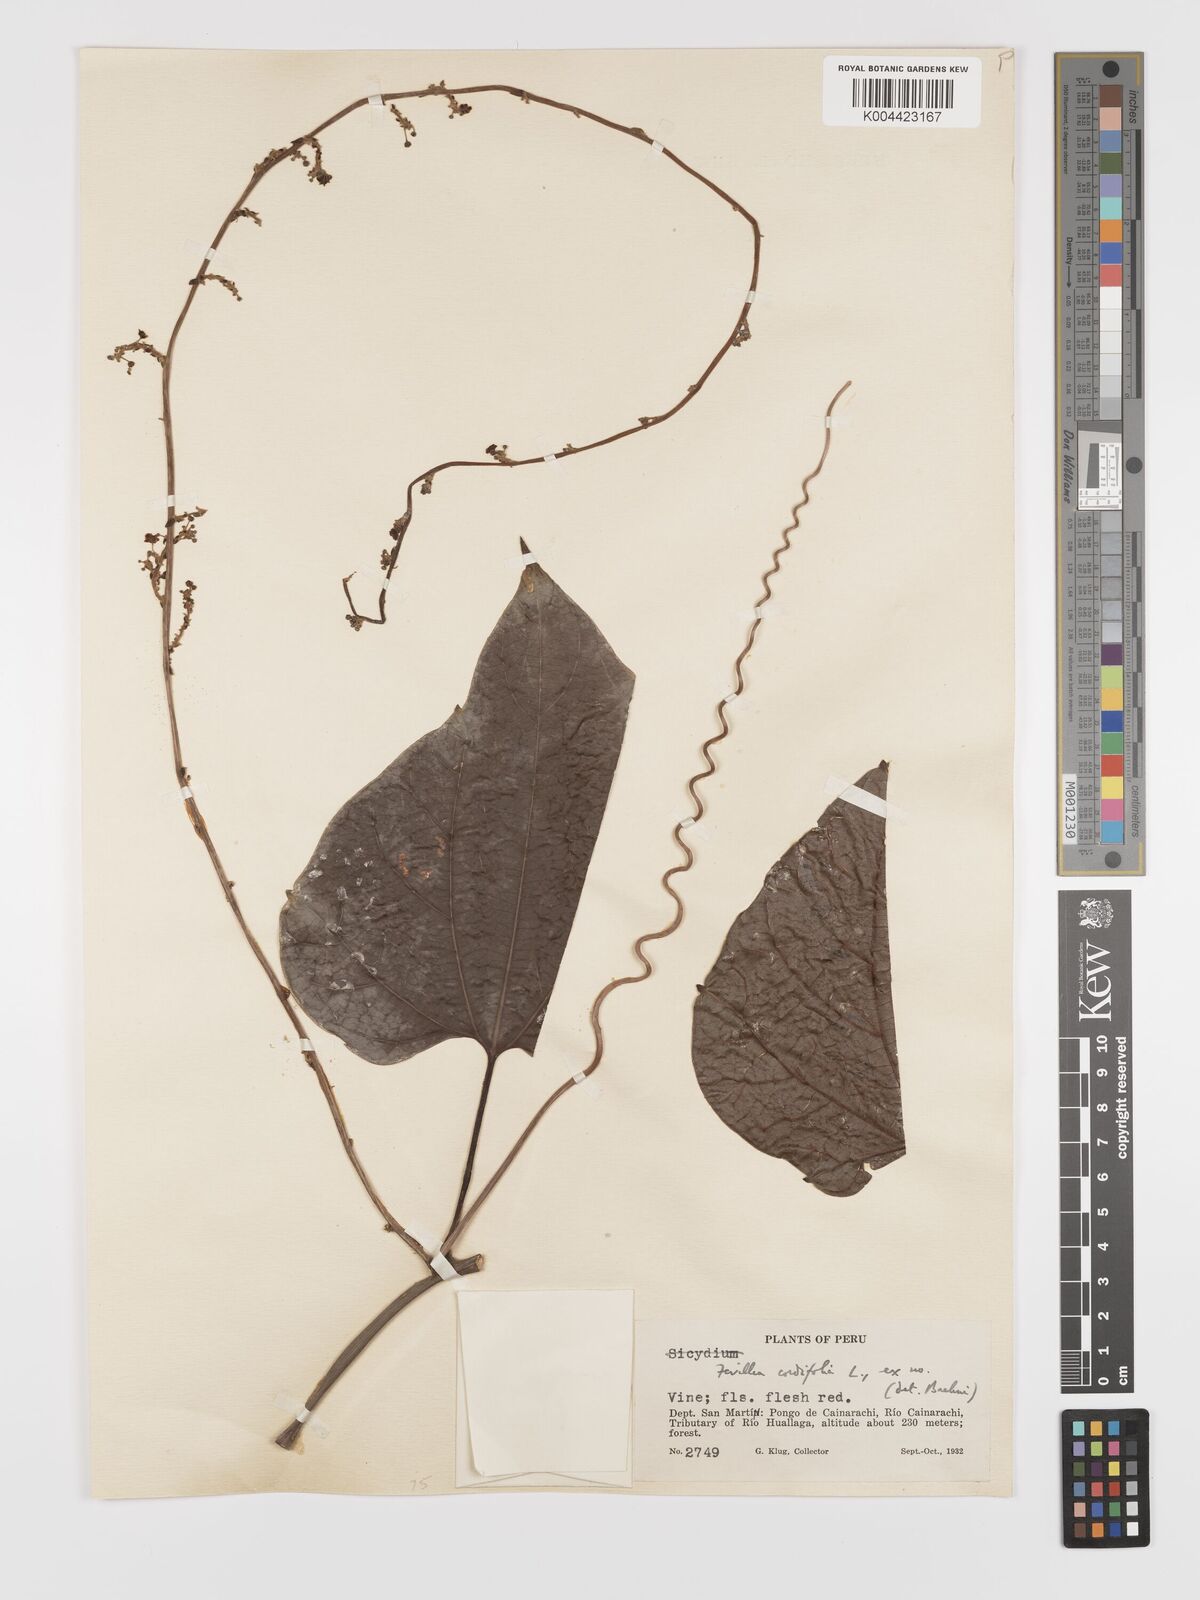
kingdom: Plantae
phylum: Tracheophyta
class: Magnoliopsida
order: Cucurbitales
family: Cucurbitaceae
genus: Fevillea
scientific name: Fevillea
